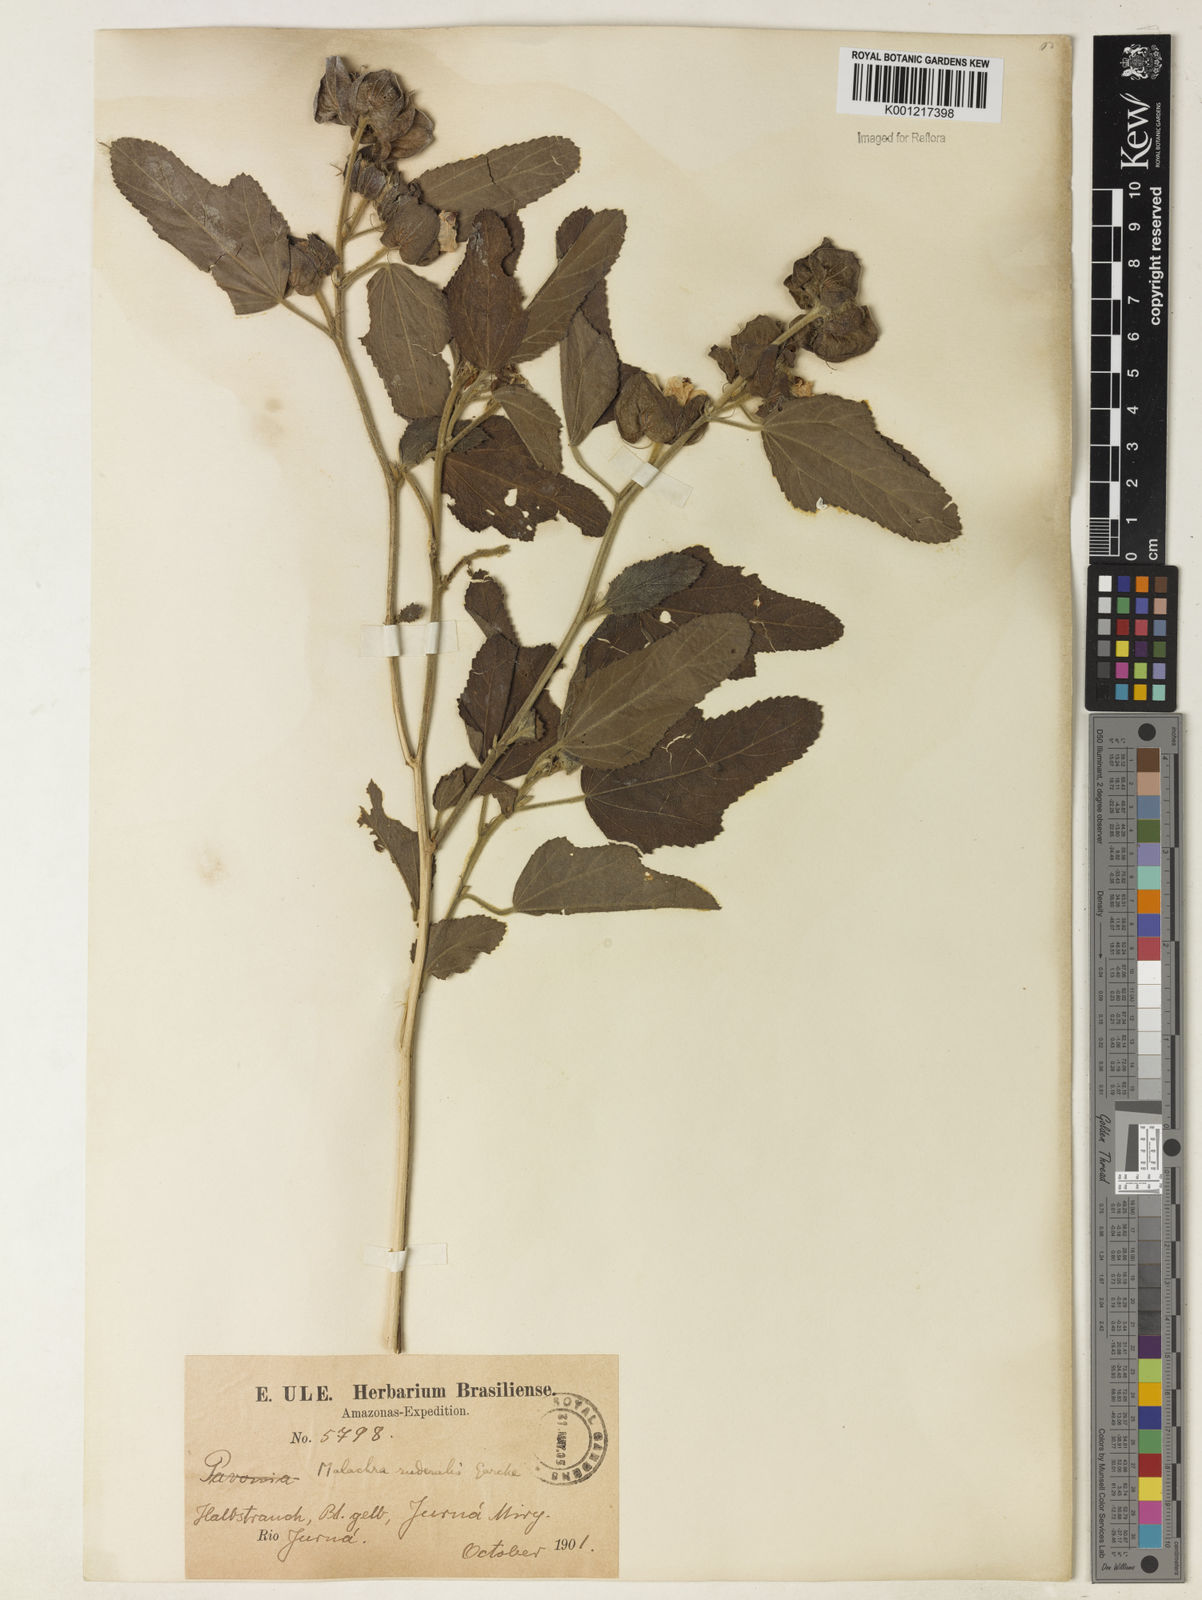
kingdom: Plantae
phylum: Tracheophyta
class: Magnoliopsida
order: Malvales
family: Malvaceae
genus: Malachra
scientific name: Malachra
